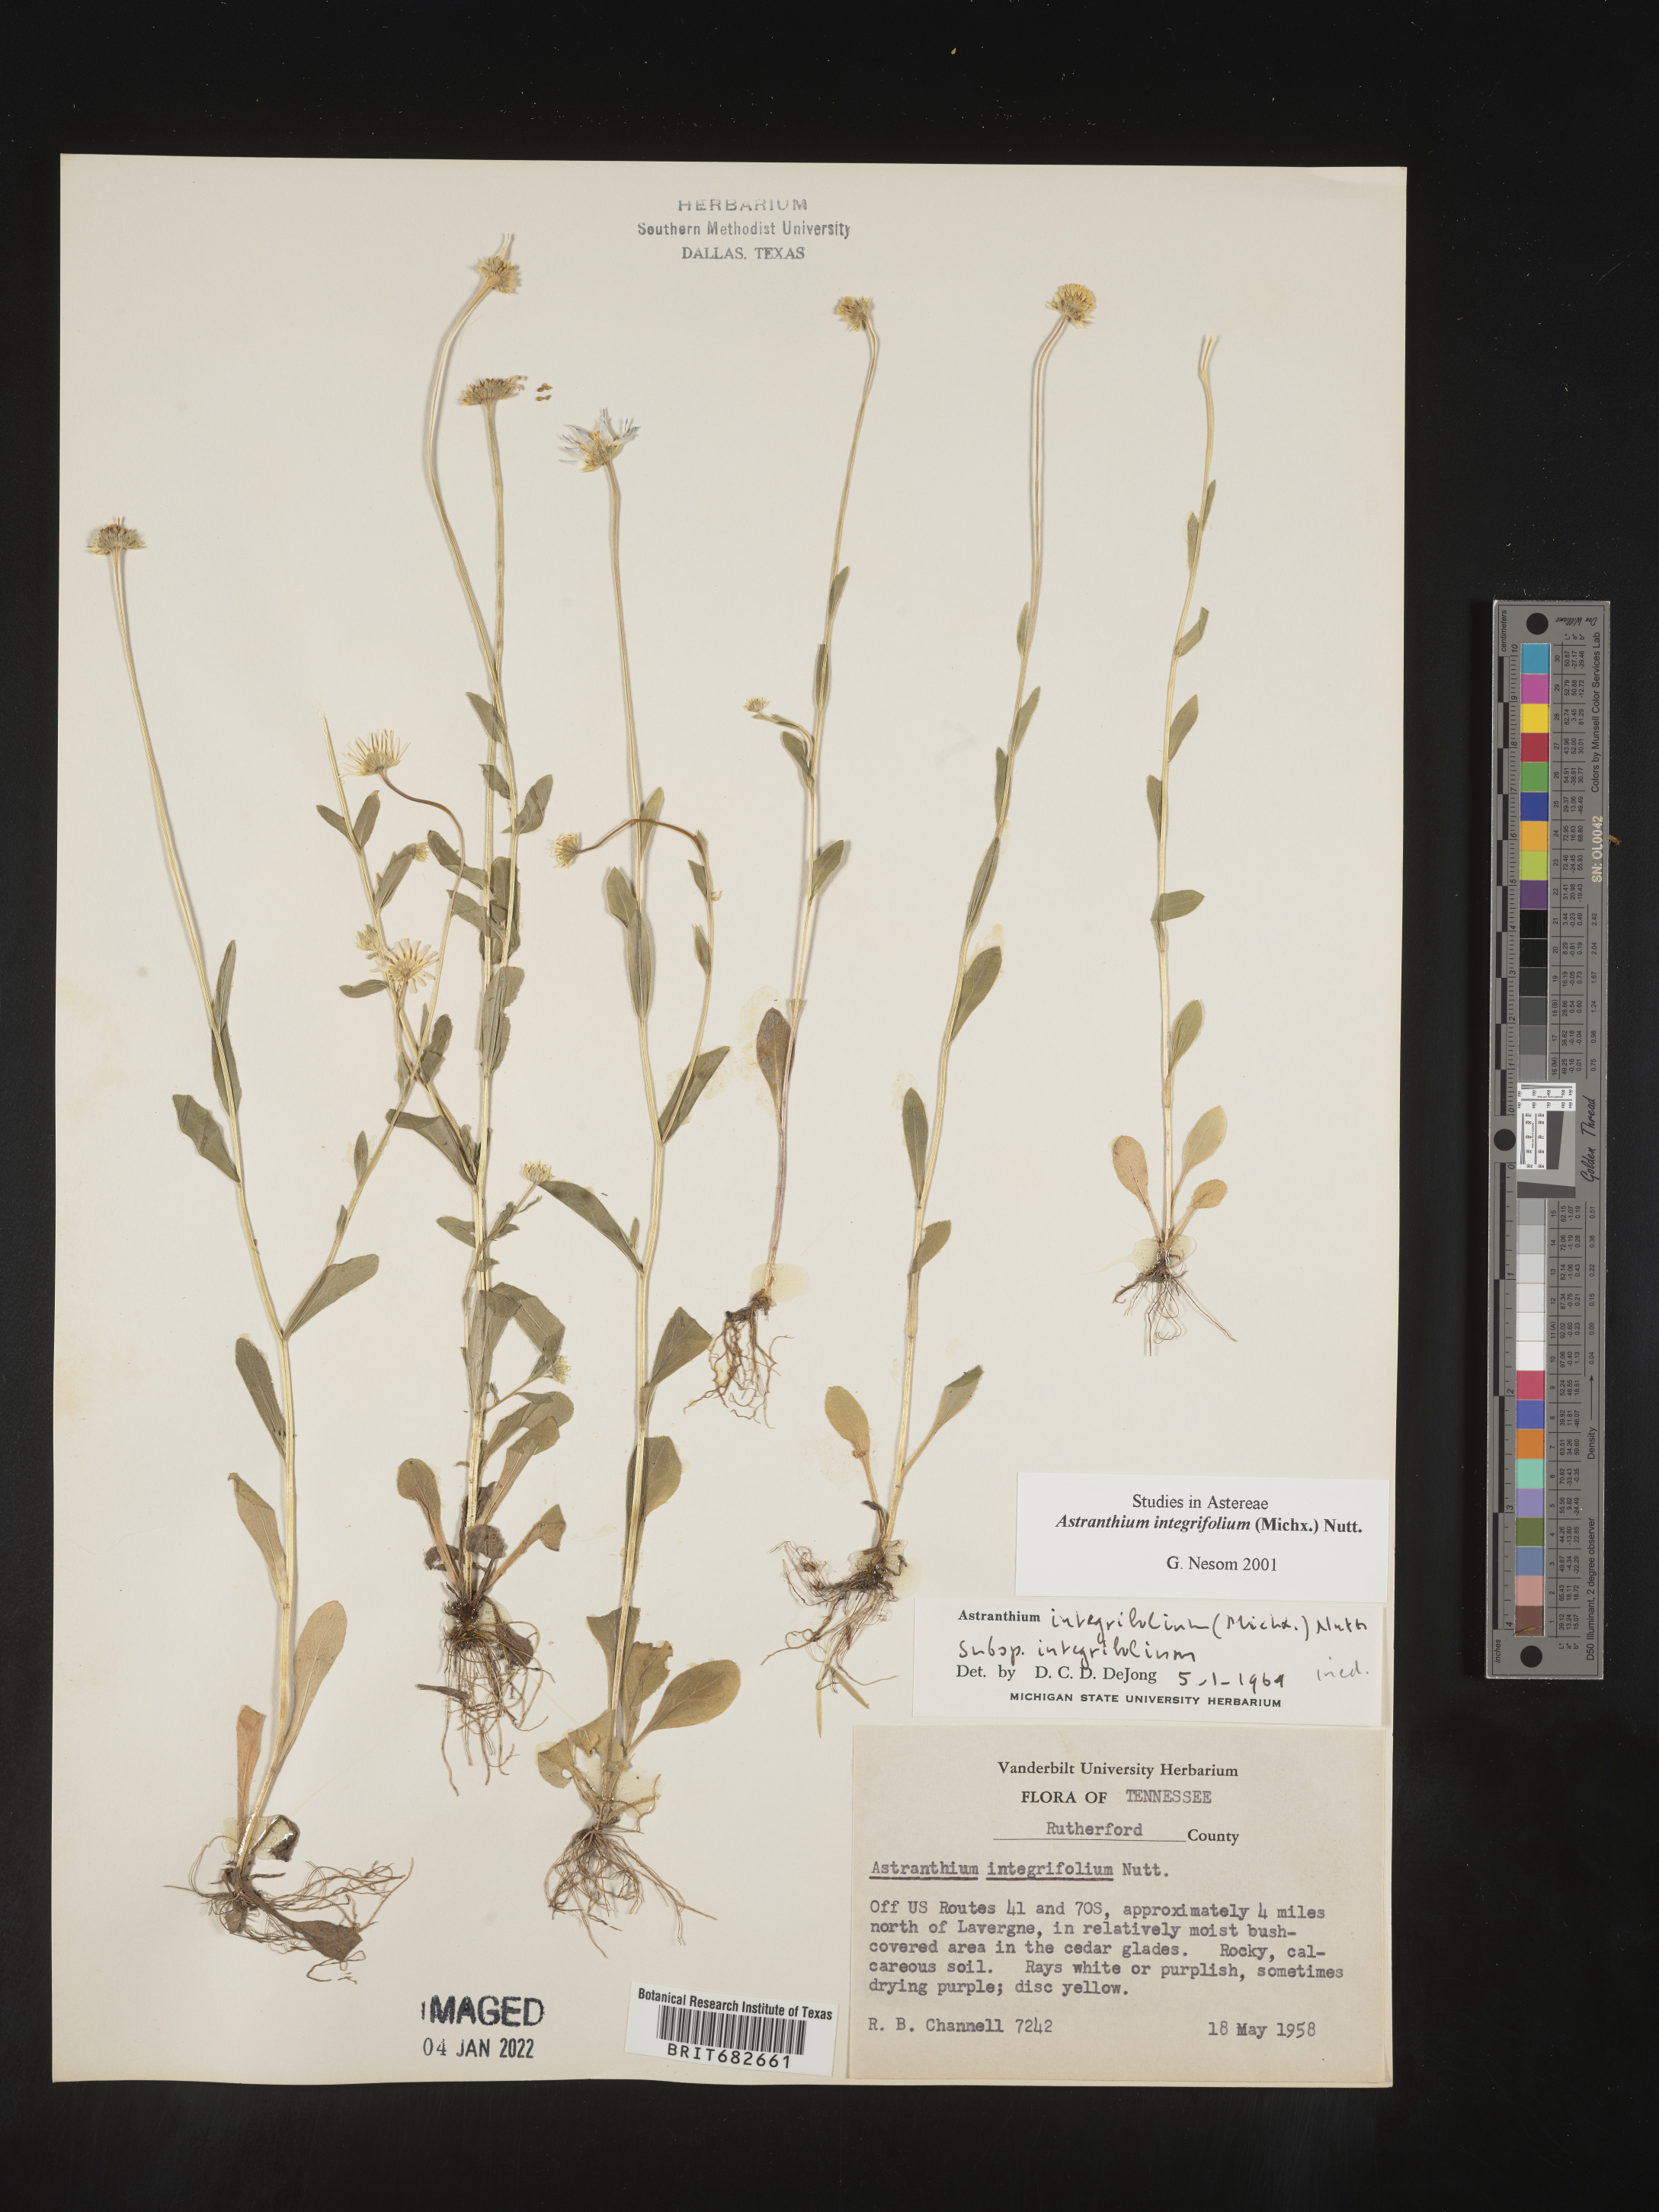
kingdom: Plantae
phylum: Tracheophyta
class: Magnoliopsida
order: Asterales
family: Asteraceae
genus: Astranthium
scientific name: Astranthium
